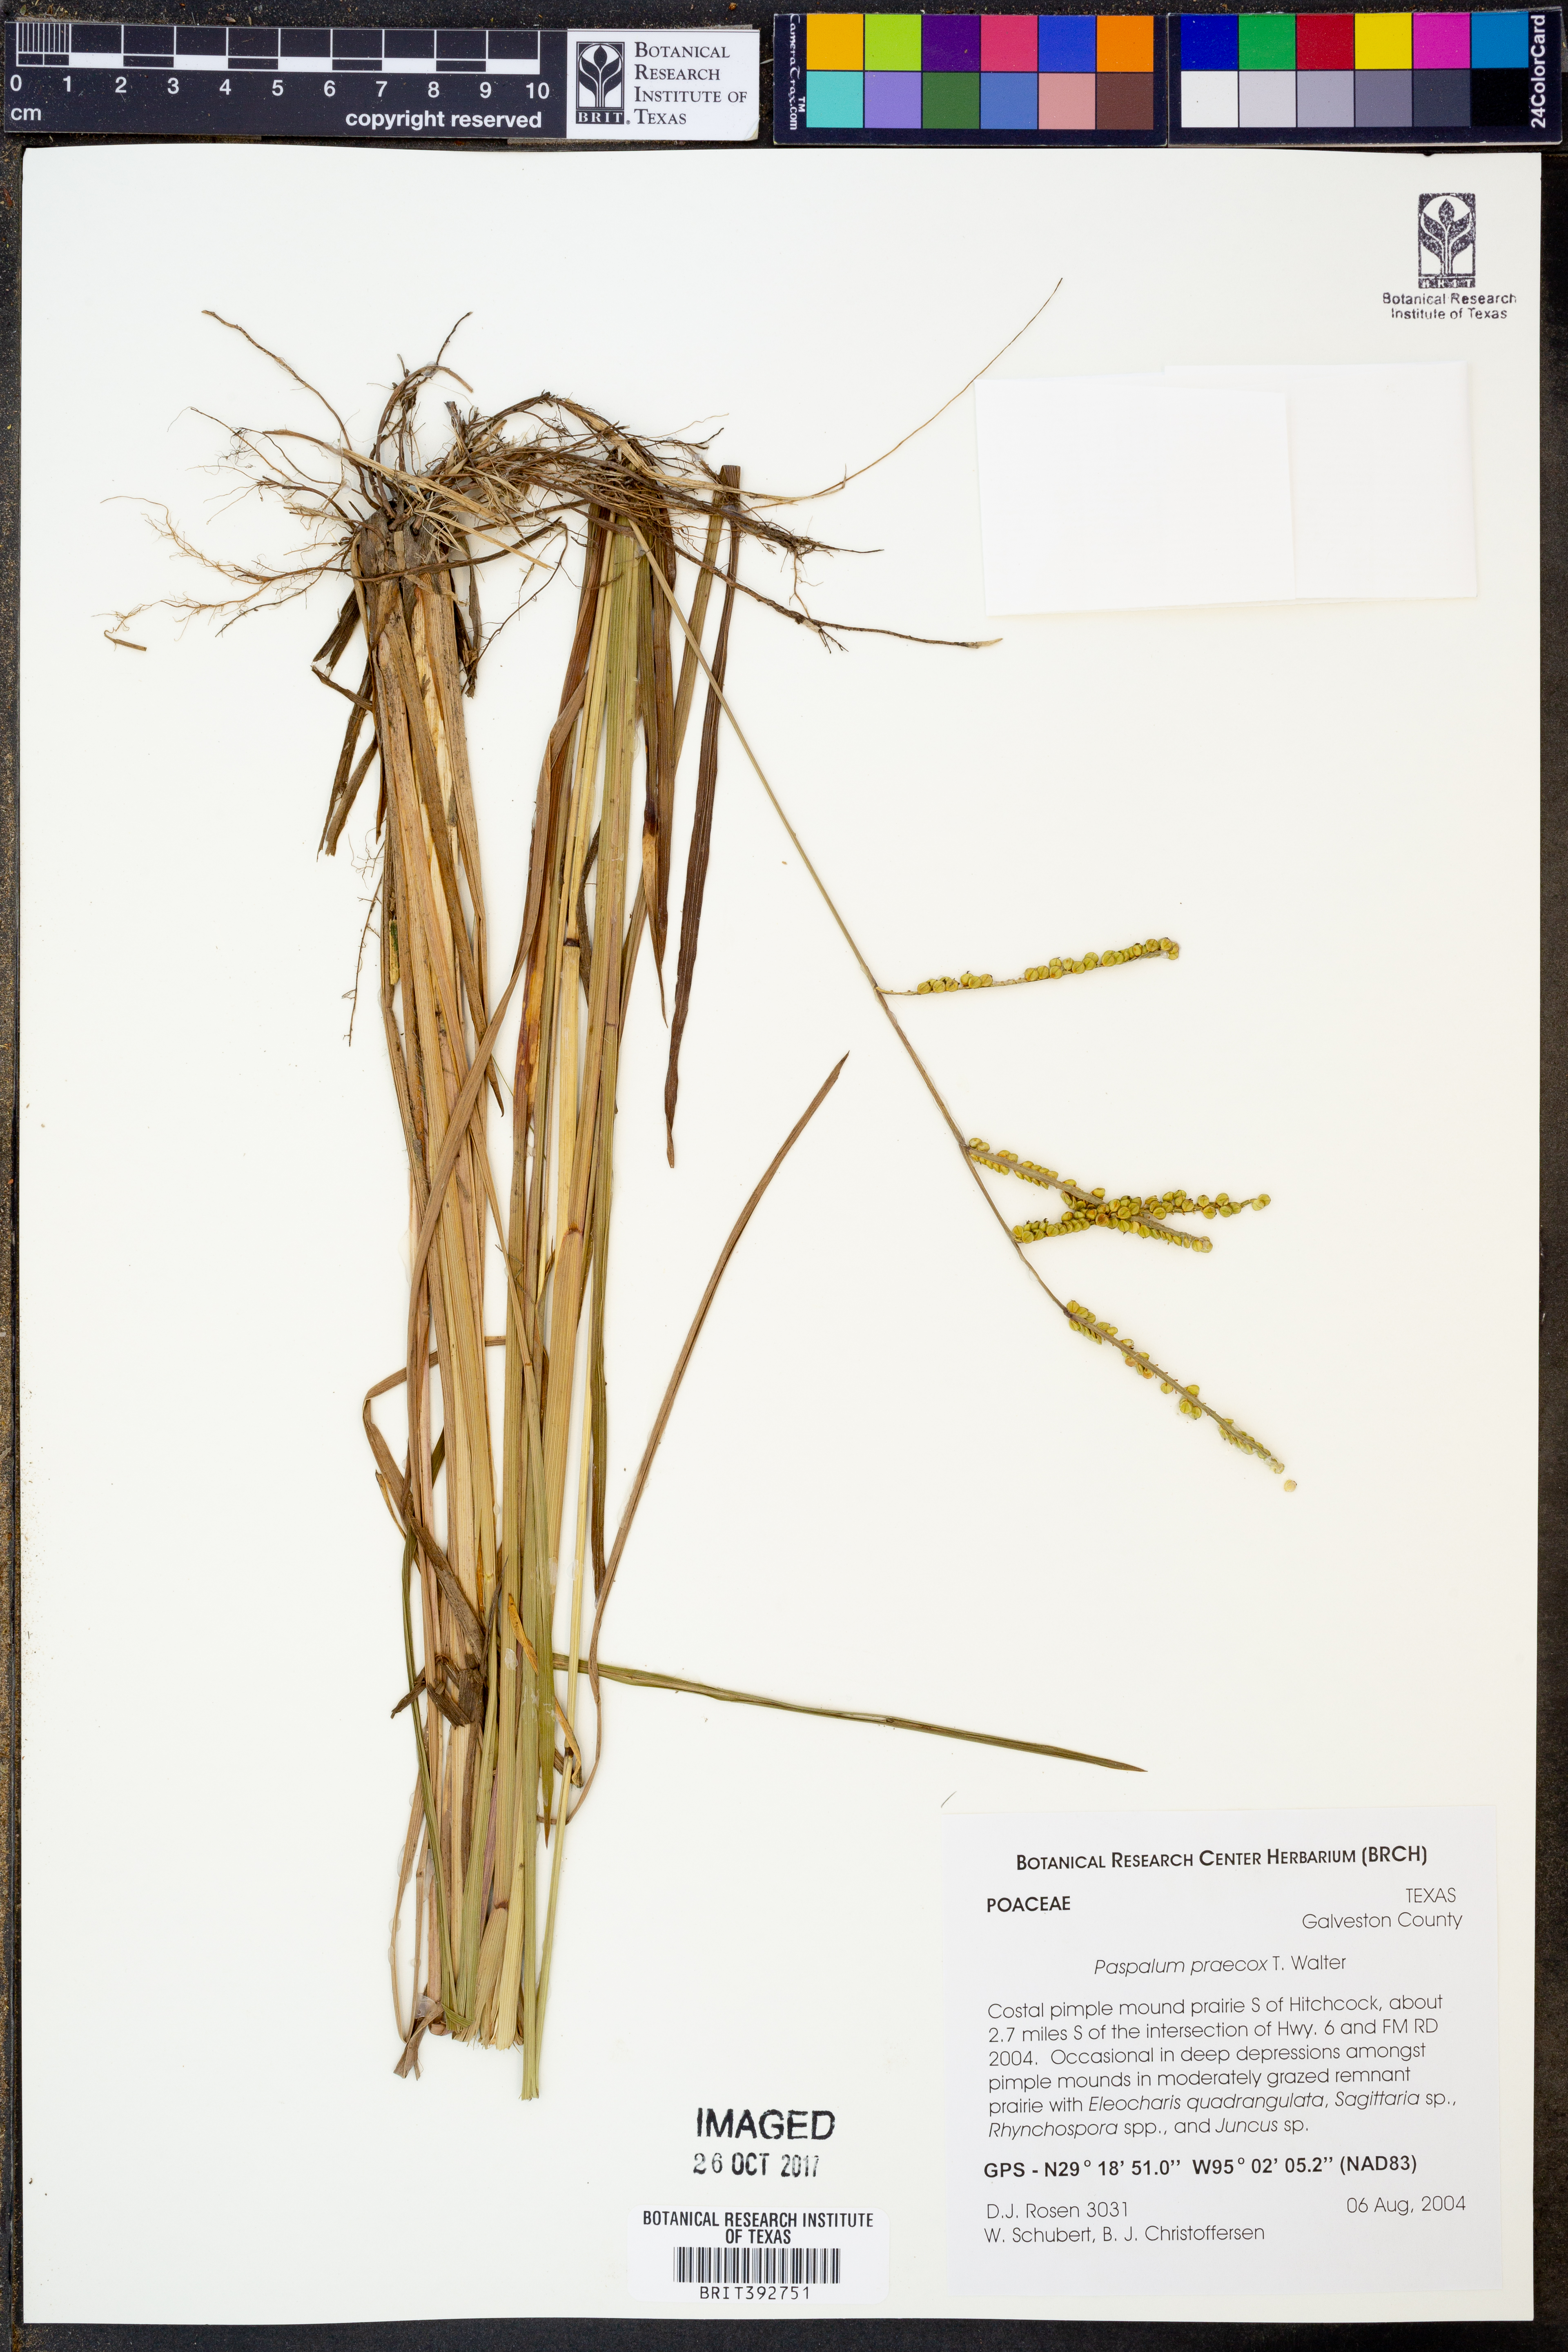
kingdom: Plantae
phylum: Tracheophyta
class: Liliopsida
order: Poales
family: Poaceae
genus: Paspalum
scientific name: Paspalum praecox
